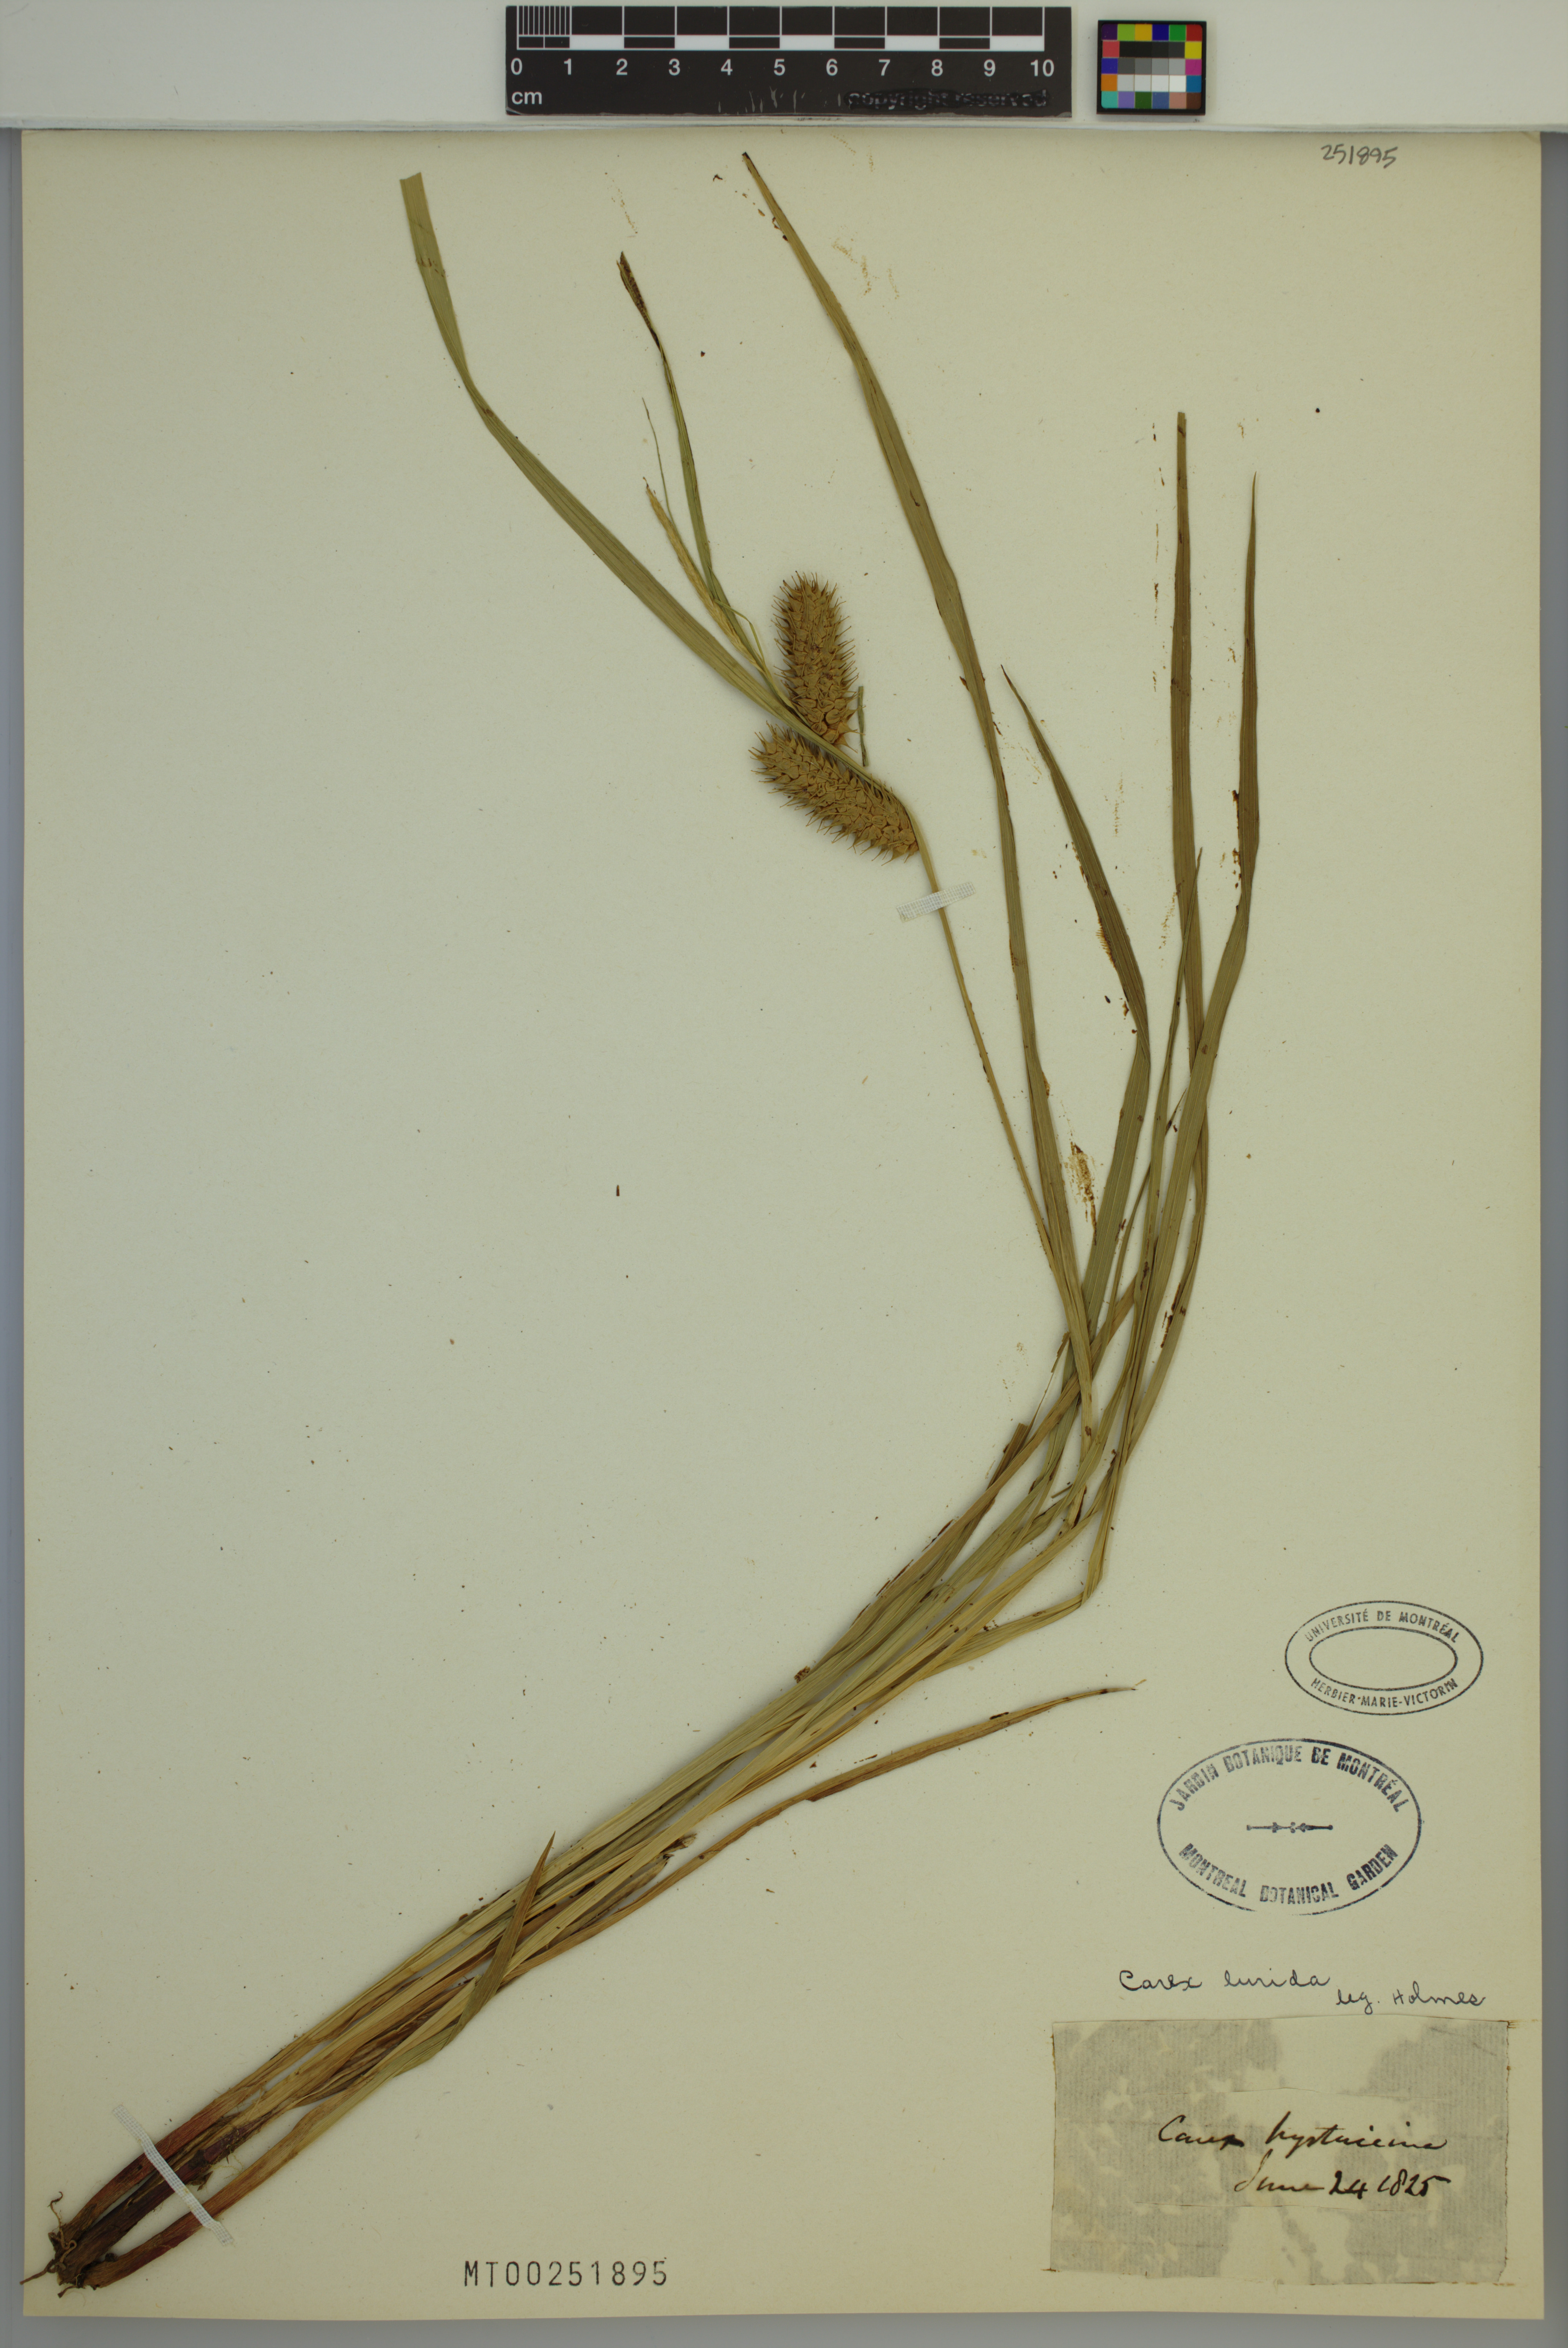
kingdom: Plantae
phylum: Tracheophyta
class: Liliopsida
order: Poales
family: Cyperaceae
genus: Carex
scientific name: Carex lurida
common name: Sallow sedge
